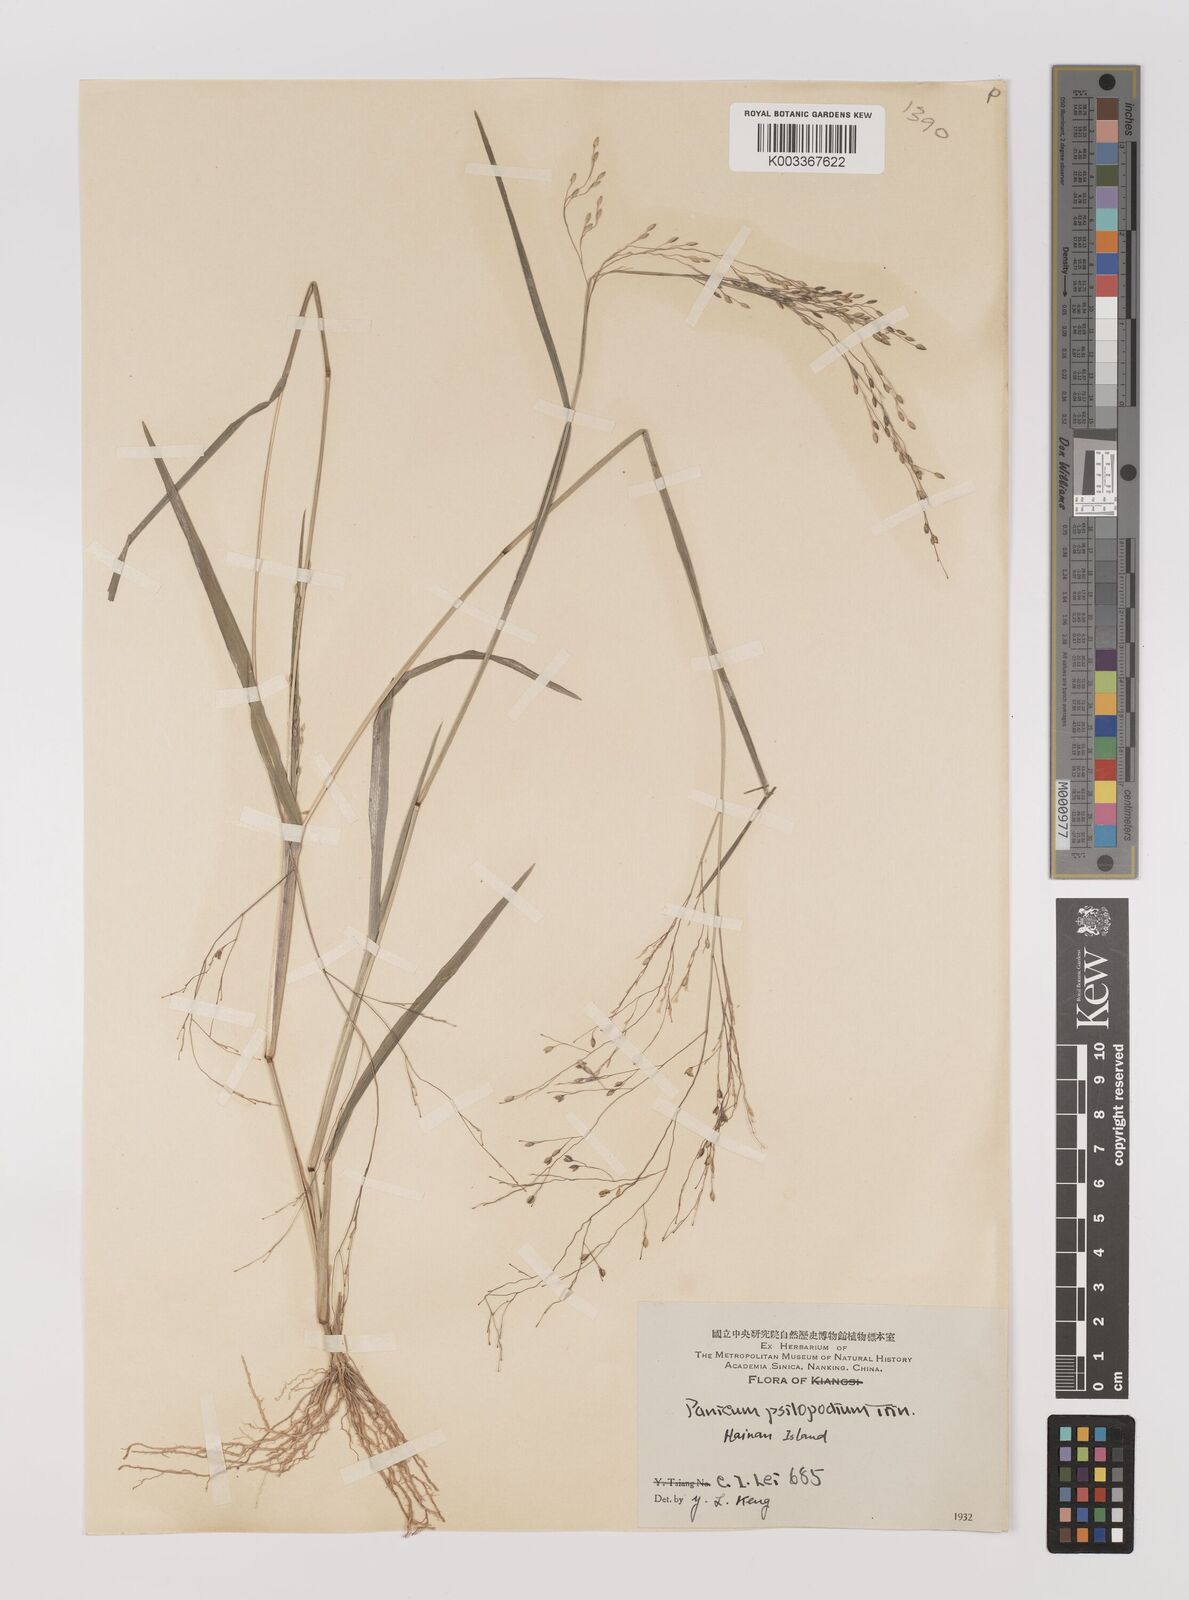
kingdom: Plantae
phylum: Tracheophyta
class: Liliopsida
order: Poales
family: Poaceae
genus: Panicum
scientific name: Panicum sumatrense
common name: Little millet
